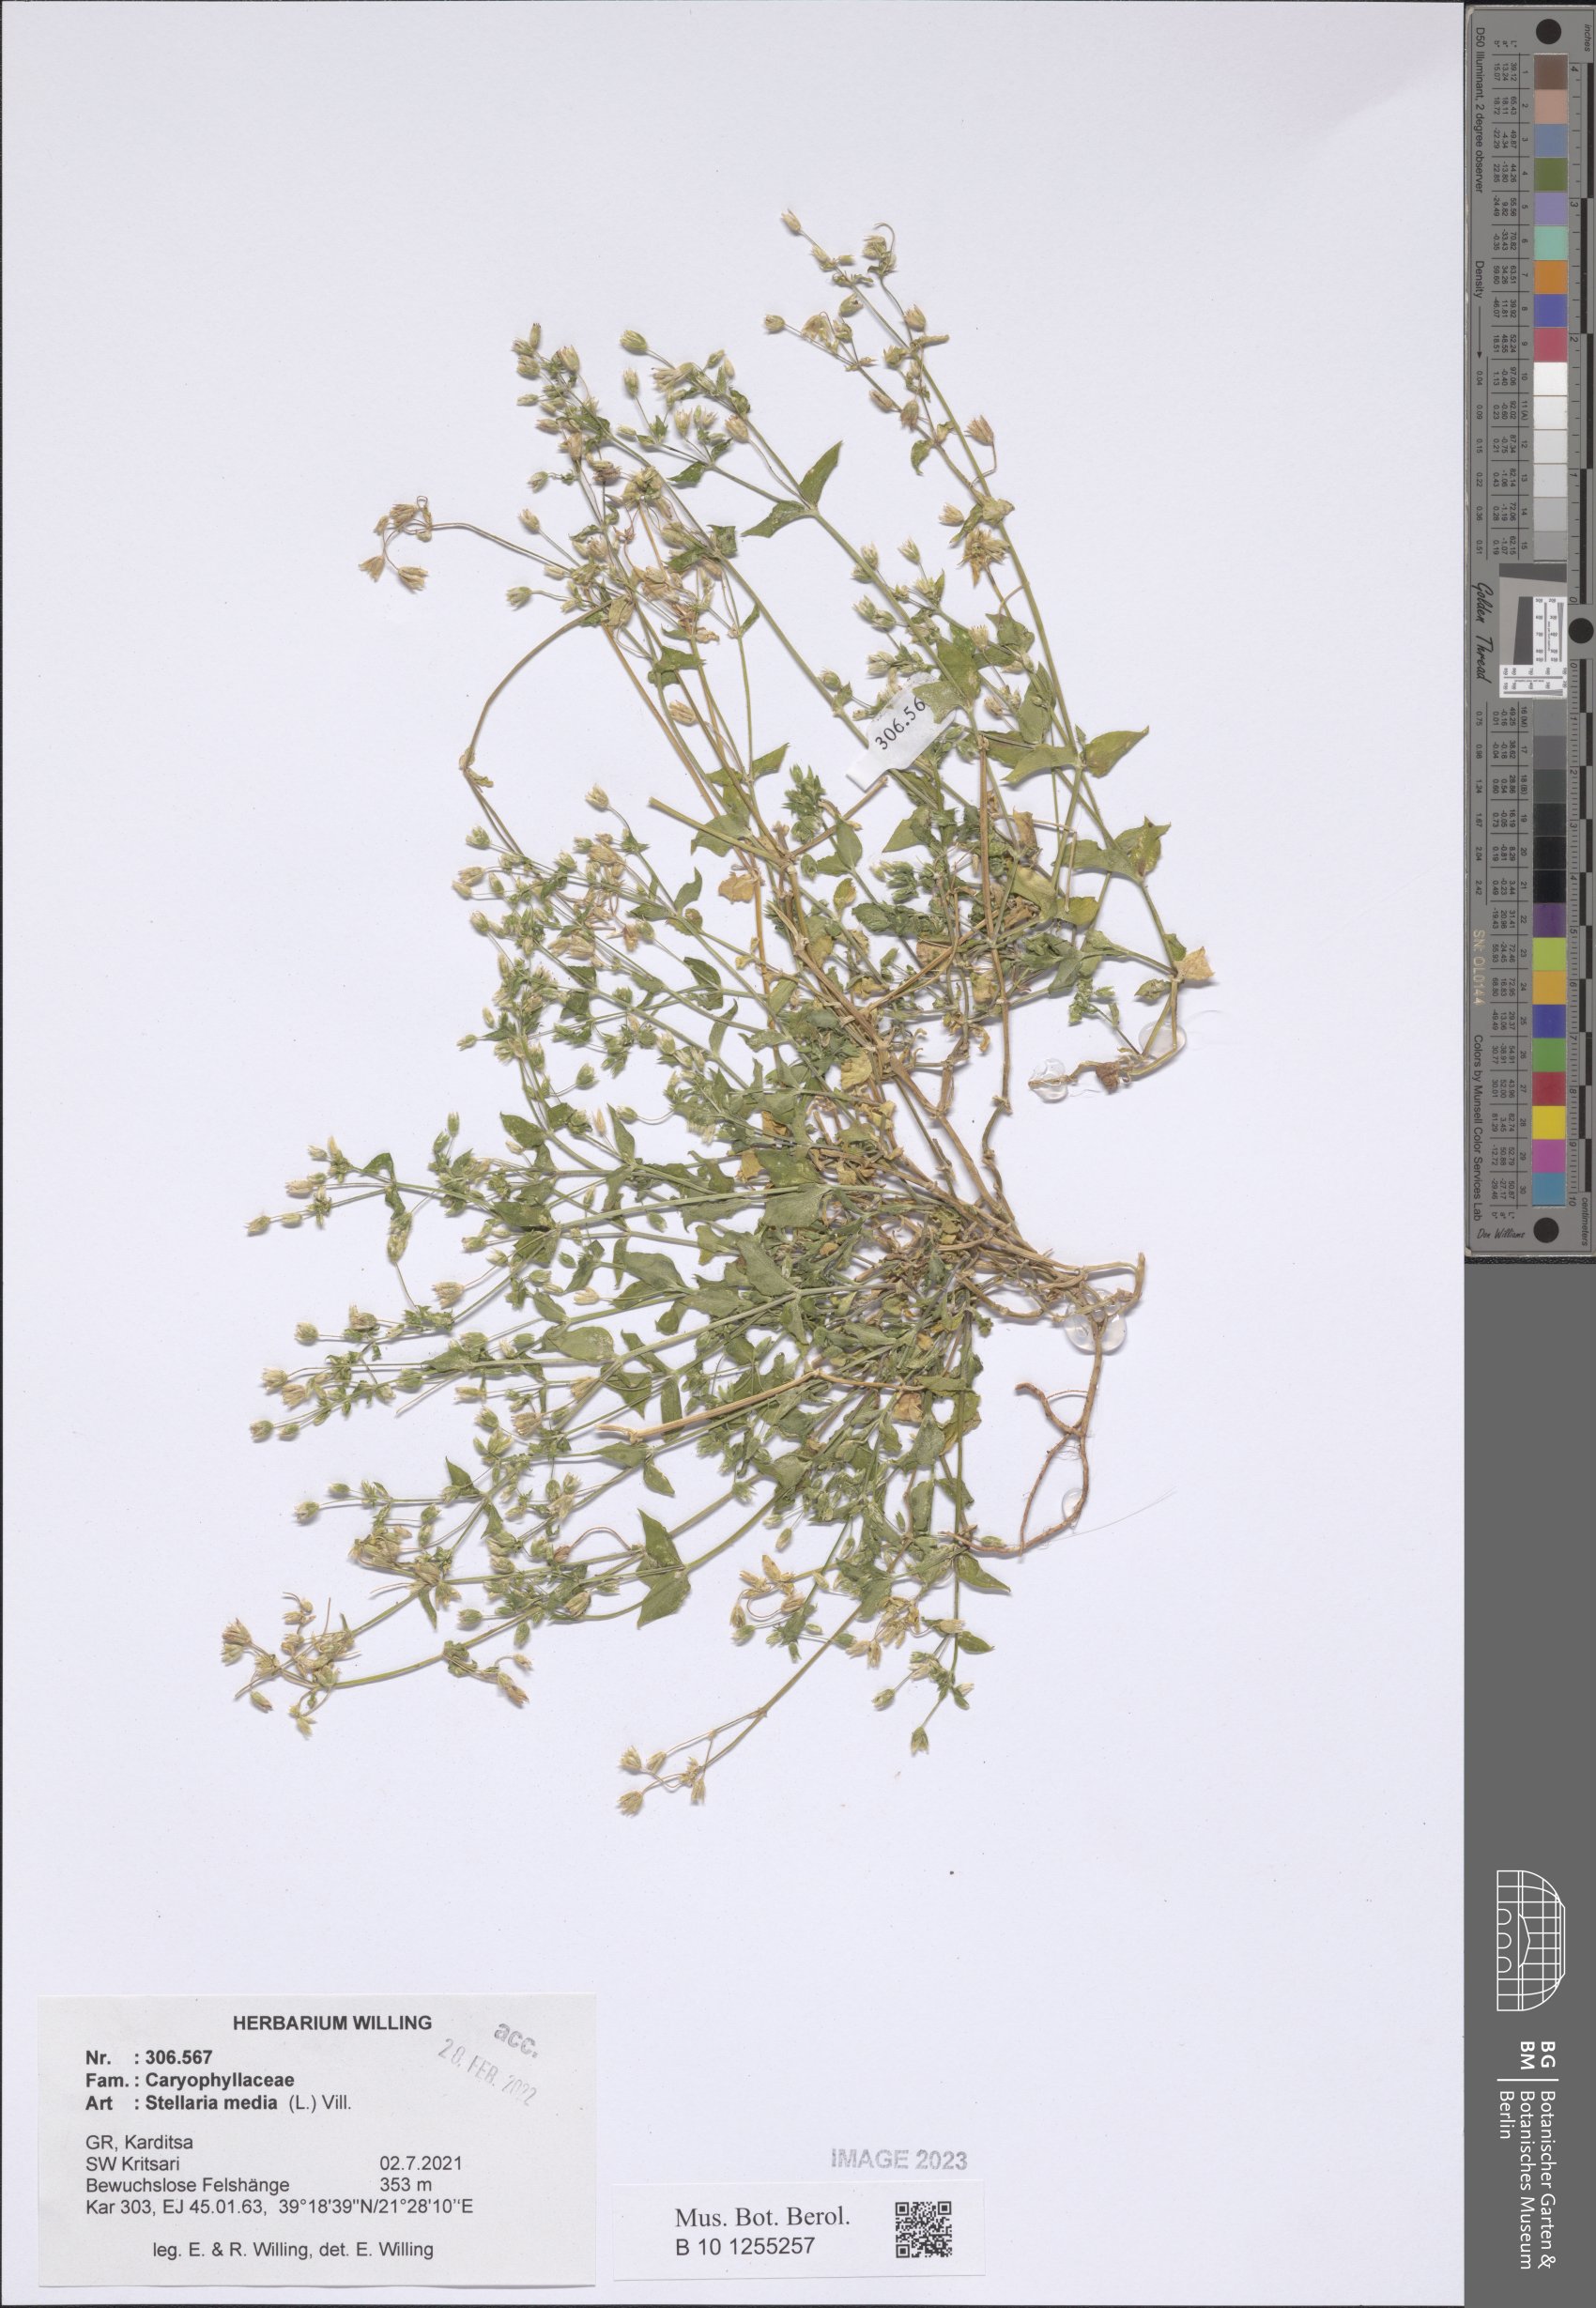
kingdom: Plantae
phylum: Tracheophyta
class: Magnoliopsida
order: Caryophyllales
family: Caryophyllaceae
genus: Stellaria
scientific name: Stellaria media
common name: Common chickweed
